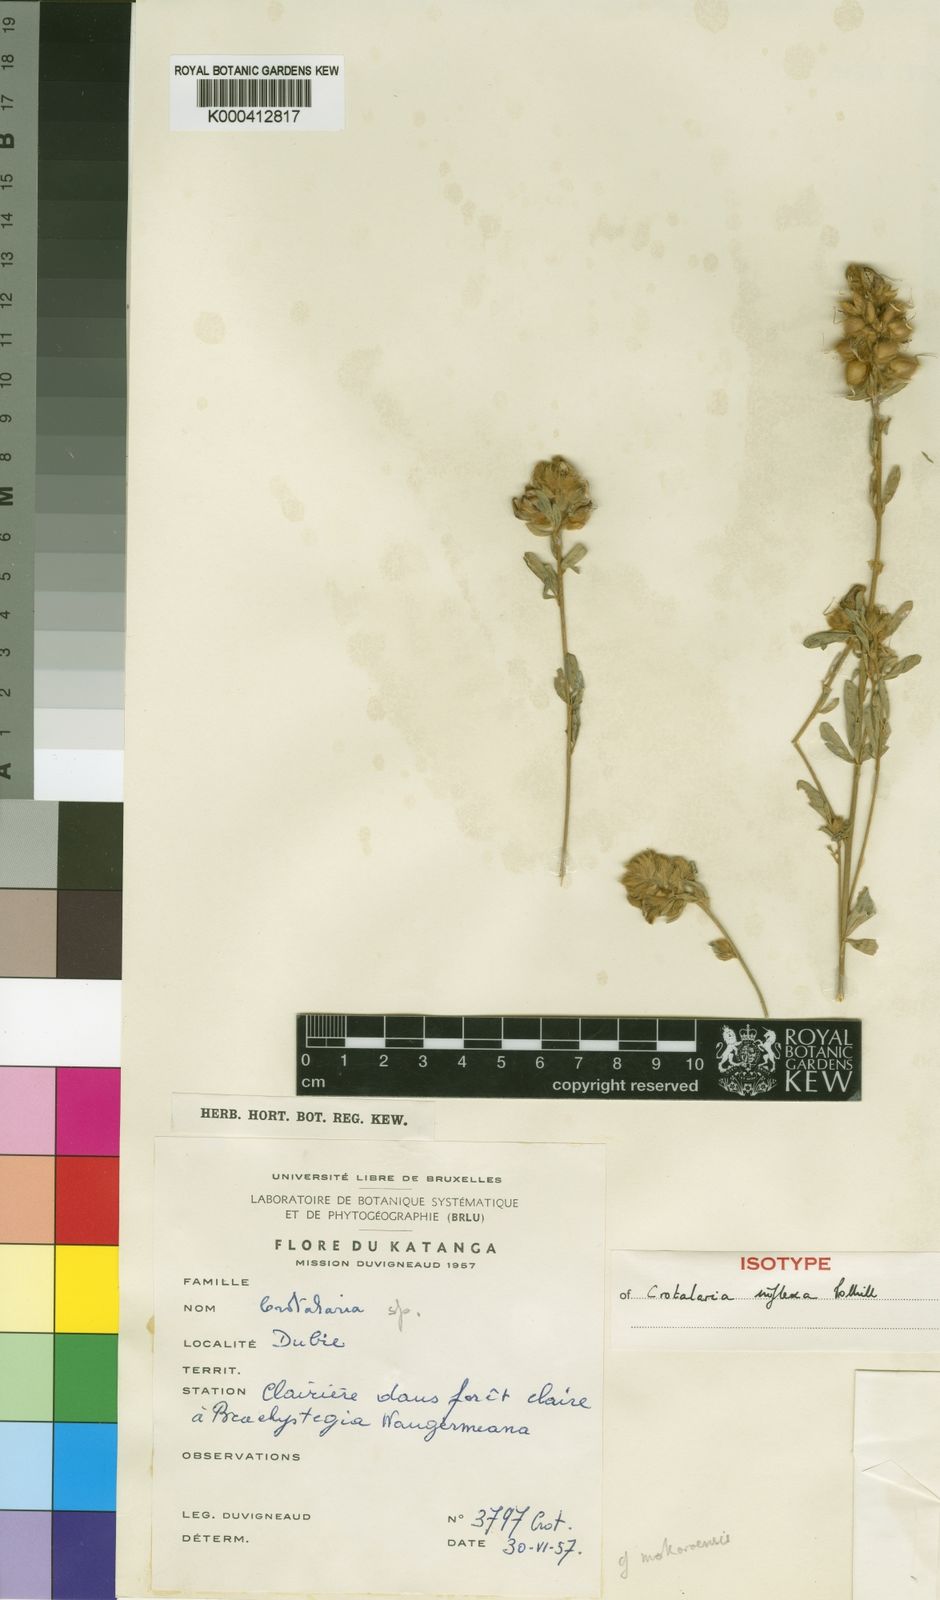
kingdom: Plantae
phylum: Tracheophyta
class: Magnoliopsida
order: Fabales
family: Fabaceae
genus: Crotalaria
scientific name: Crotalaria inflexa
